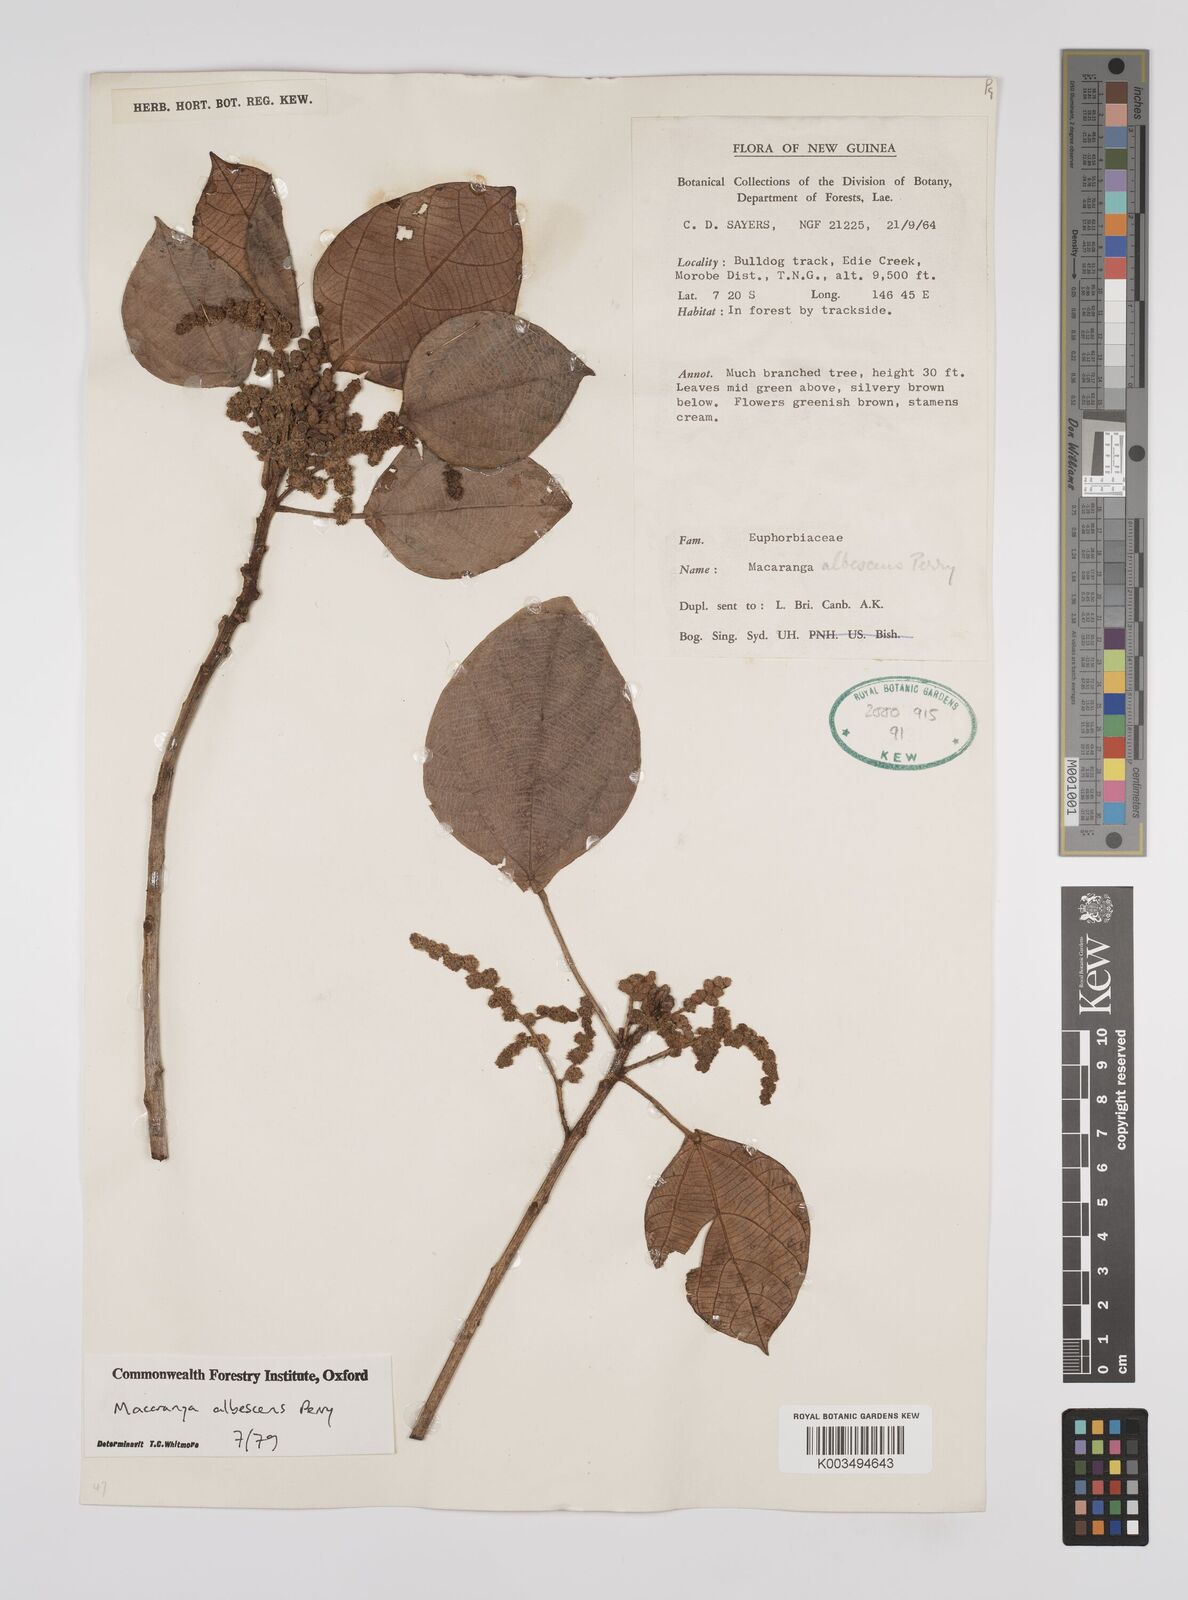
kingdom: Plantae
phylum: Tracheophyta
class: Magnoliopsida
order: Malpighiales
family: Euphorbiaceae
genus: Macaranga
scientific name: Macaranga albescens
